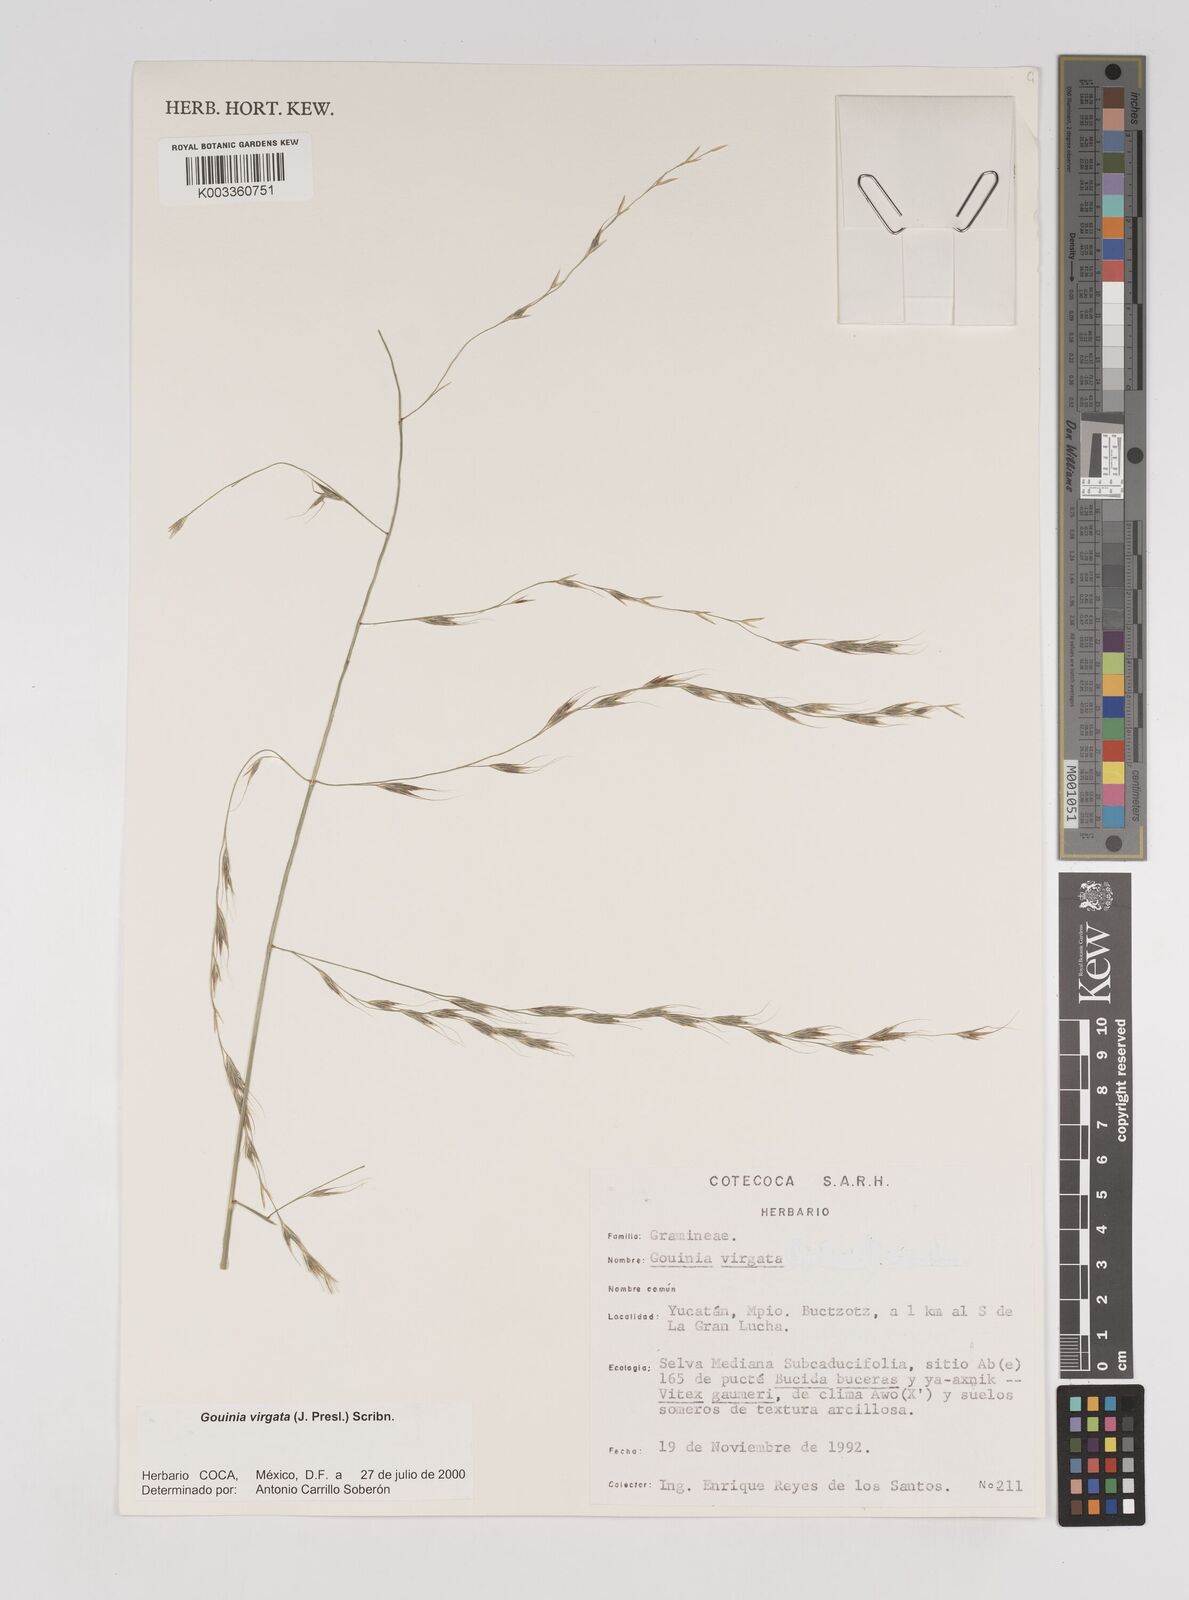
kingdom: Plantae
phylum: Tracheophyta
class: Liliopsida
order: Poales
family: Poaceae
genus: Gouinia
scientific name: Gouinia virgata
